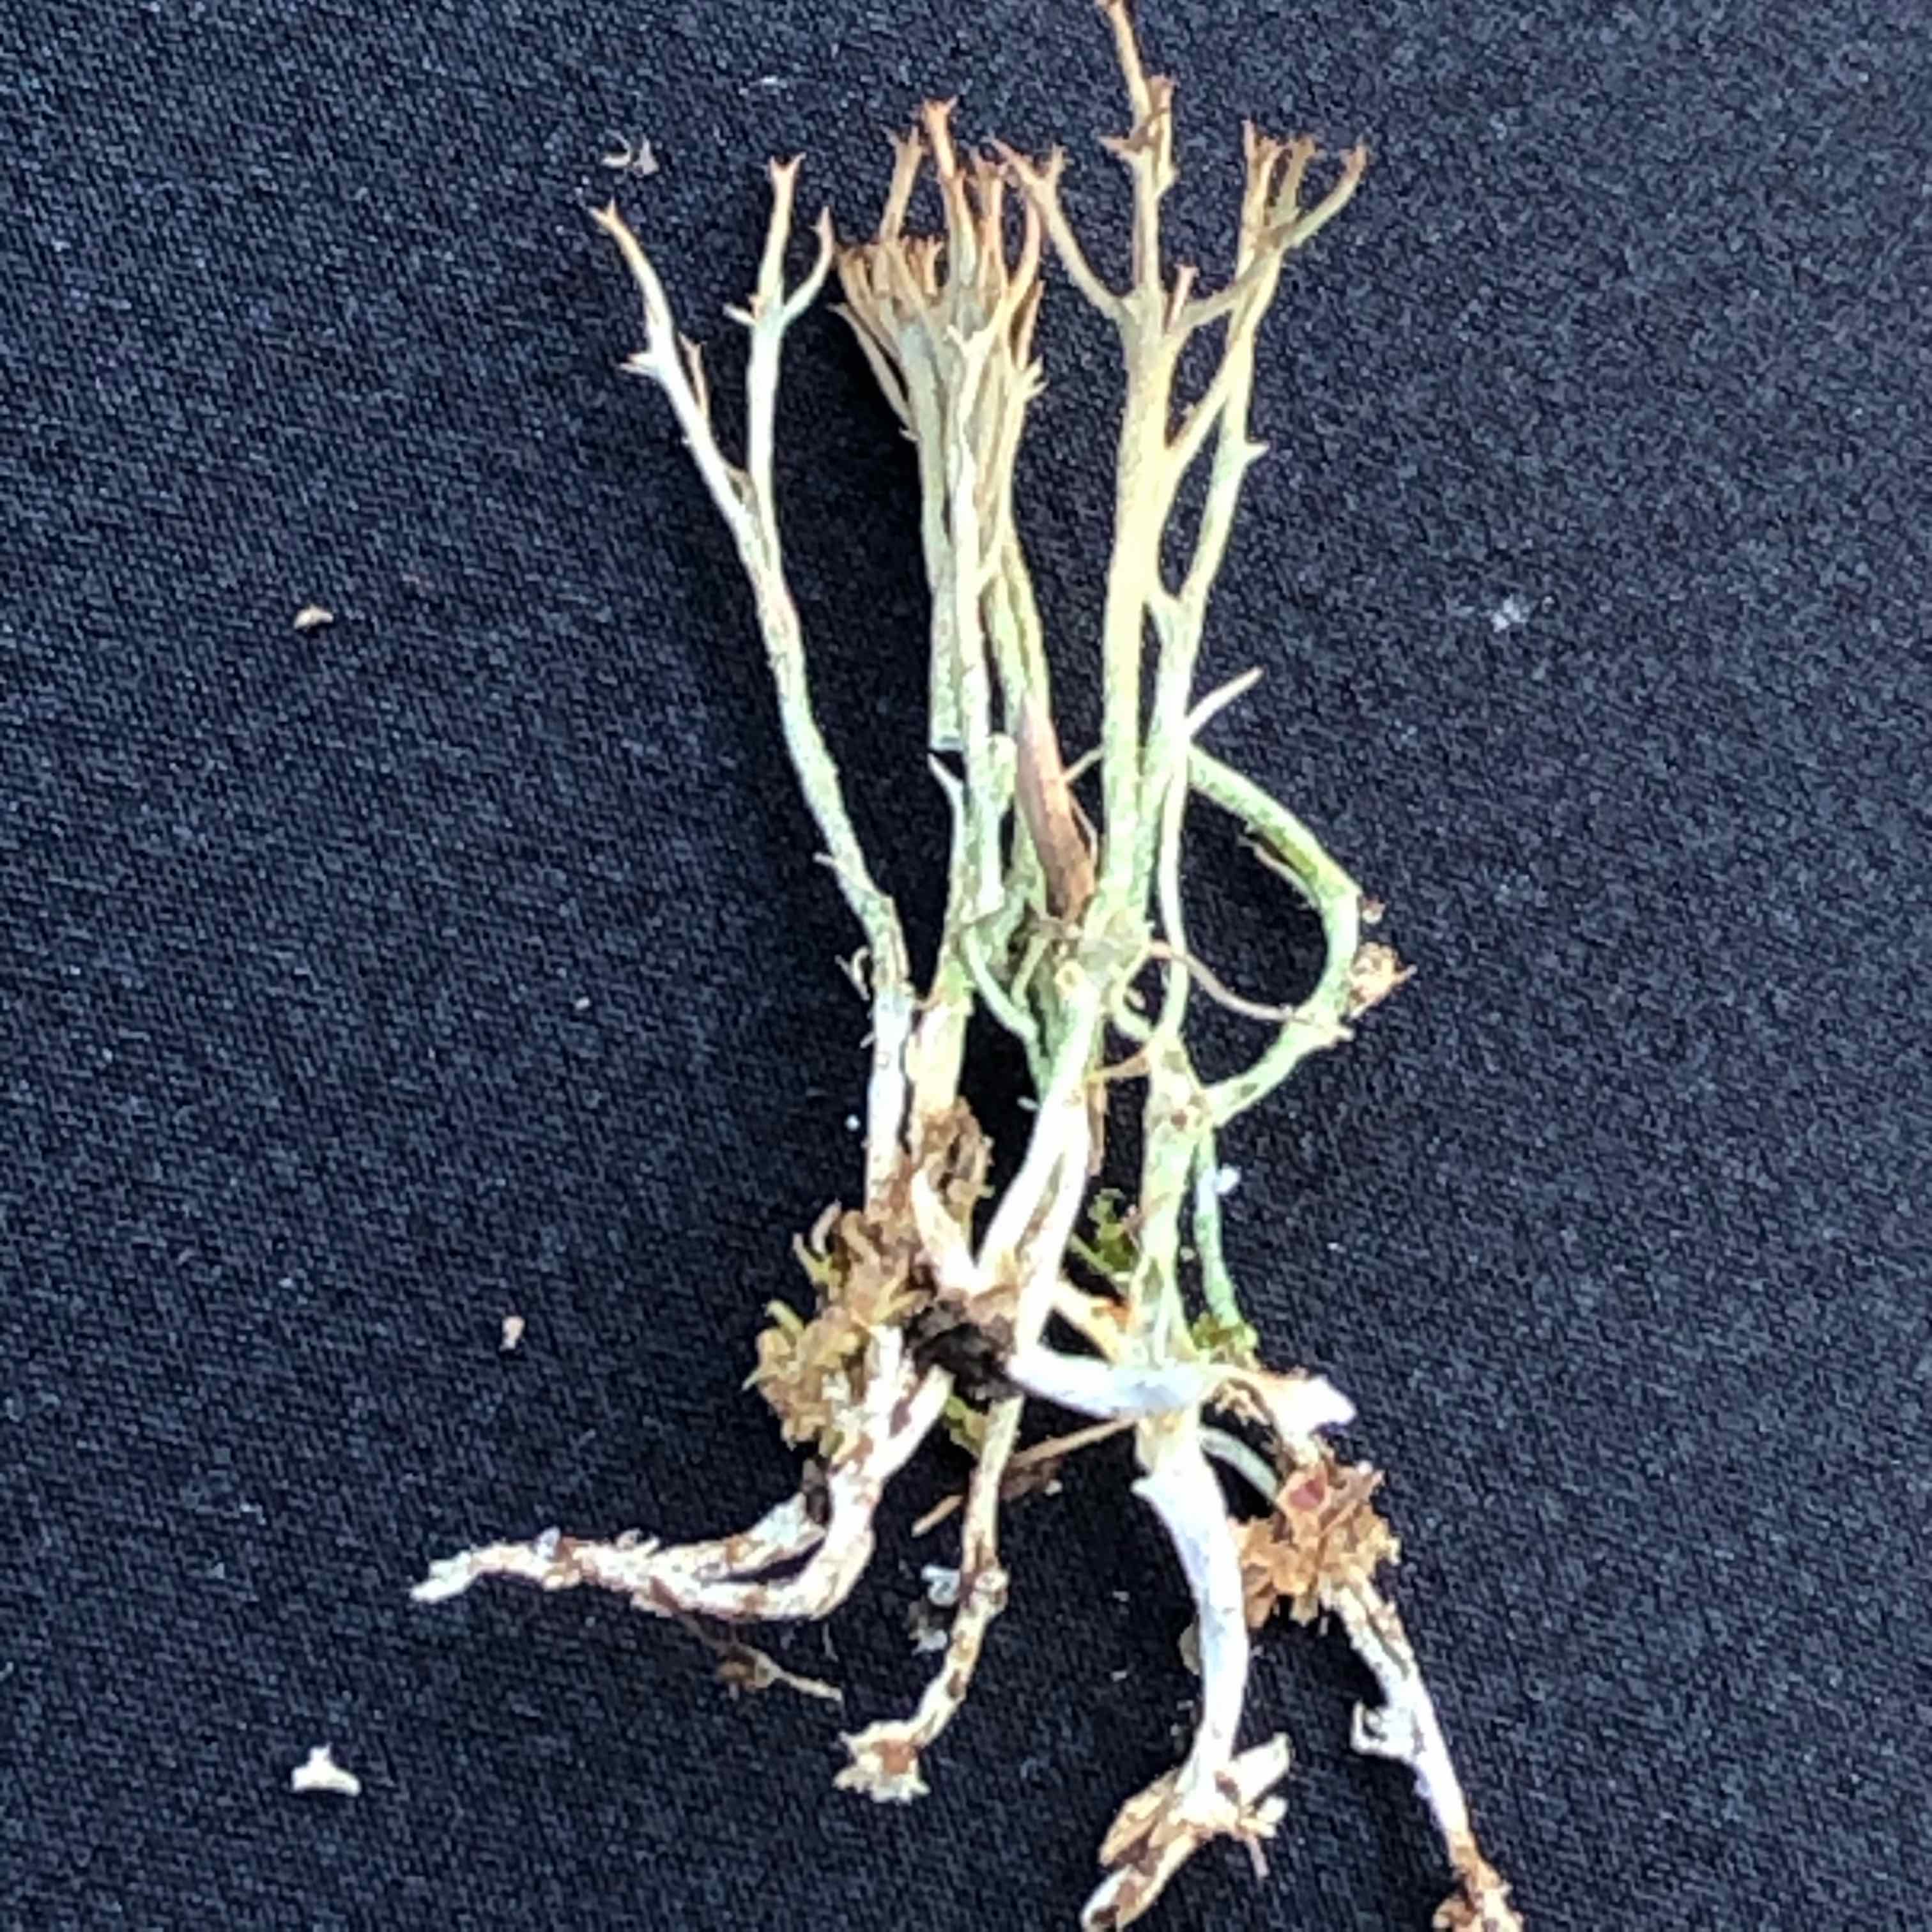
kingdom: Fungi
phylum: Ascomycota
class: Lecanoromycetes
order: Lecanorales
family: Cladoniaceae
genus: Cladonia
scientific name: Cladonia crispata
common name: takket bægerlav
